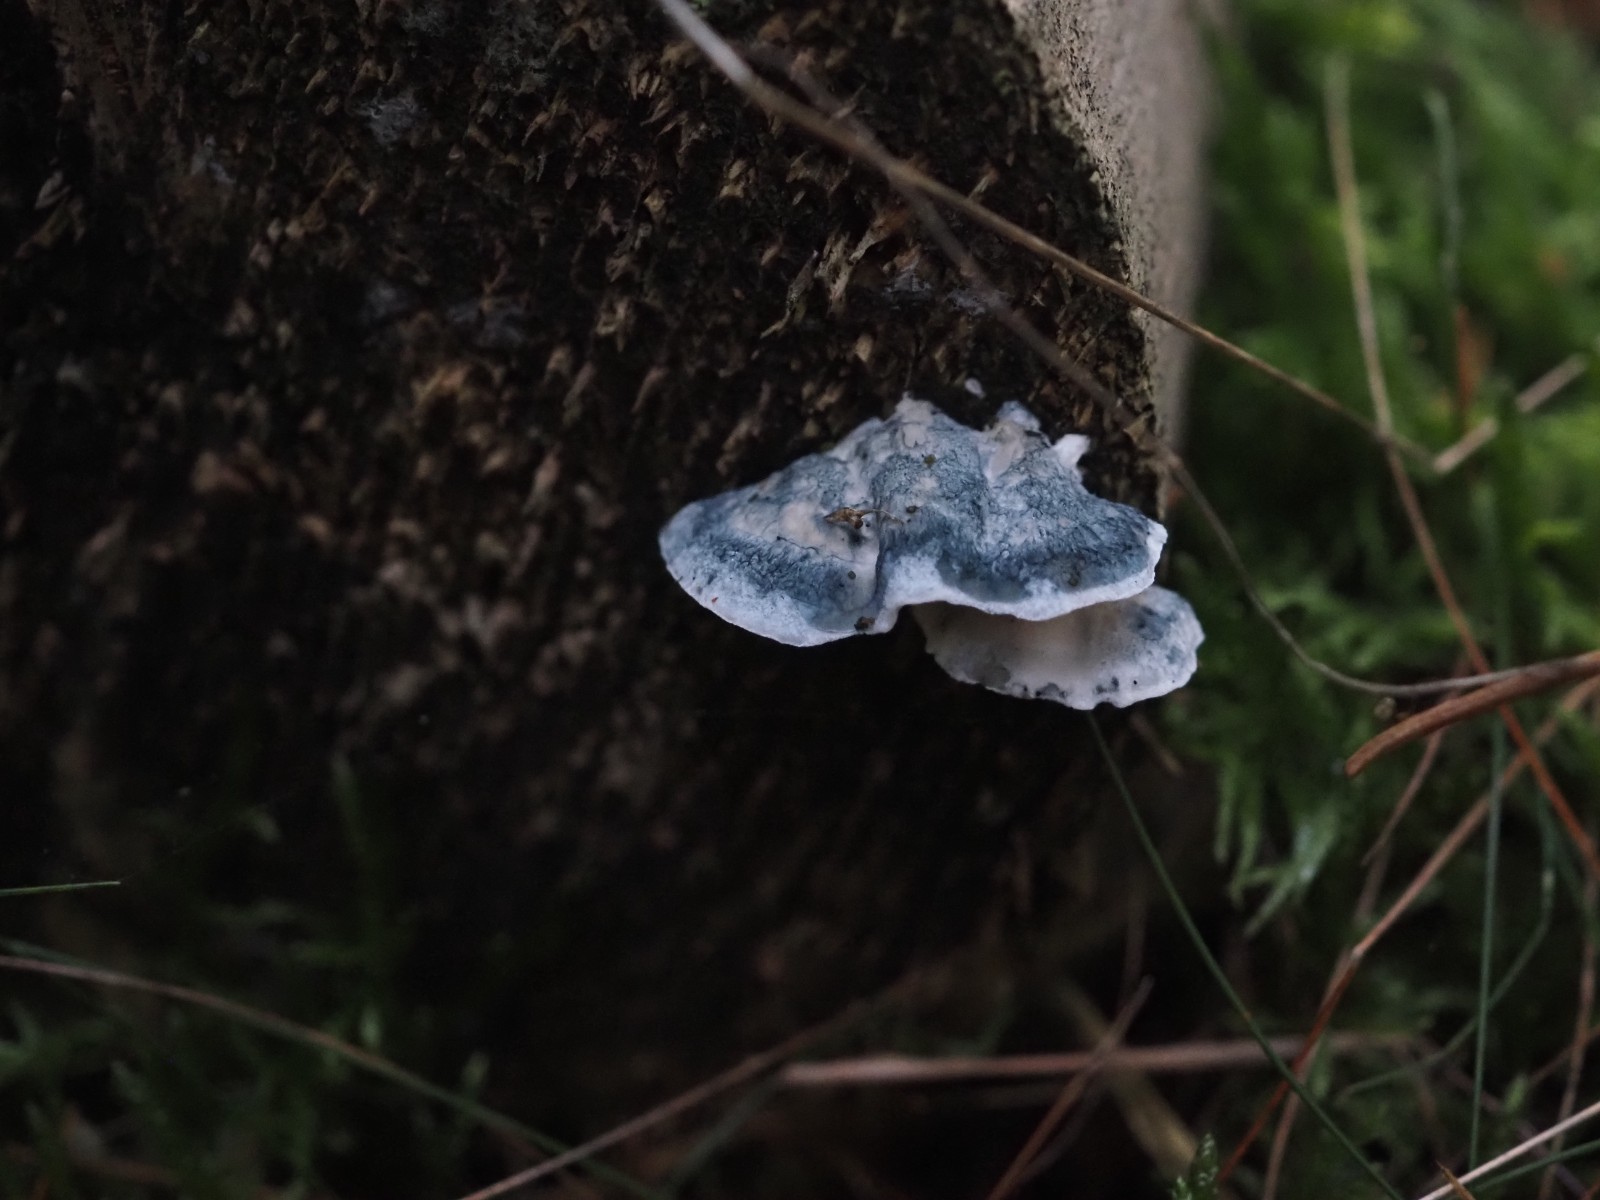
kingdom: Fungi
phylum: Basidiomycota
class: Agaricomycetes
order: Polyporales
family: Polyporaceae
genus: Cyanosporus
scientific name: Cyanosporus caesius
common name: blålig kødporesvamp
